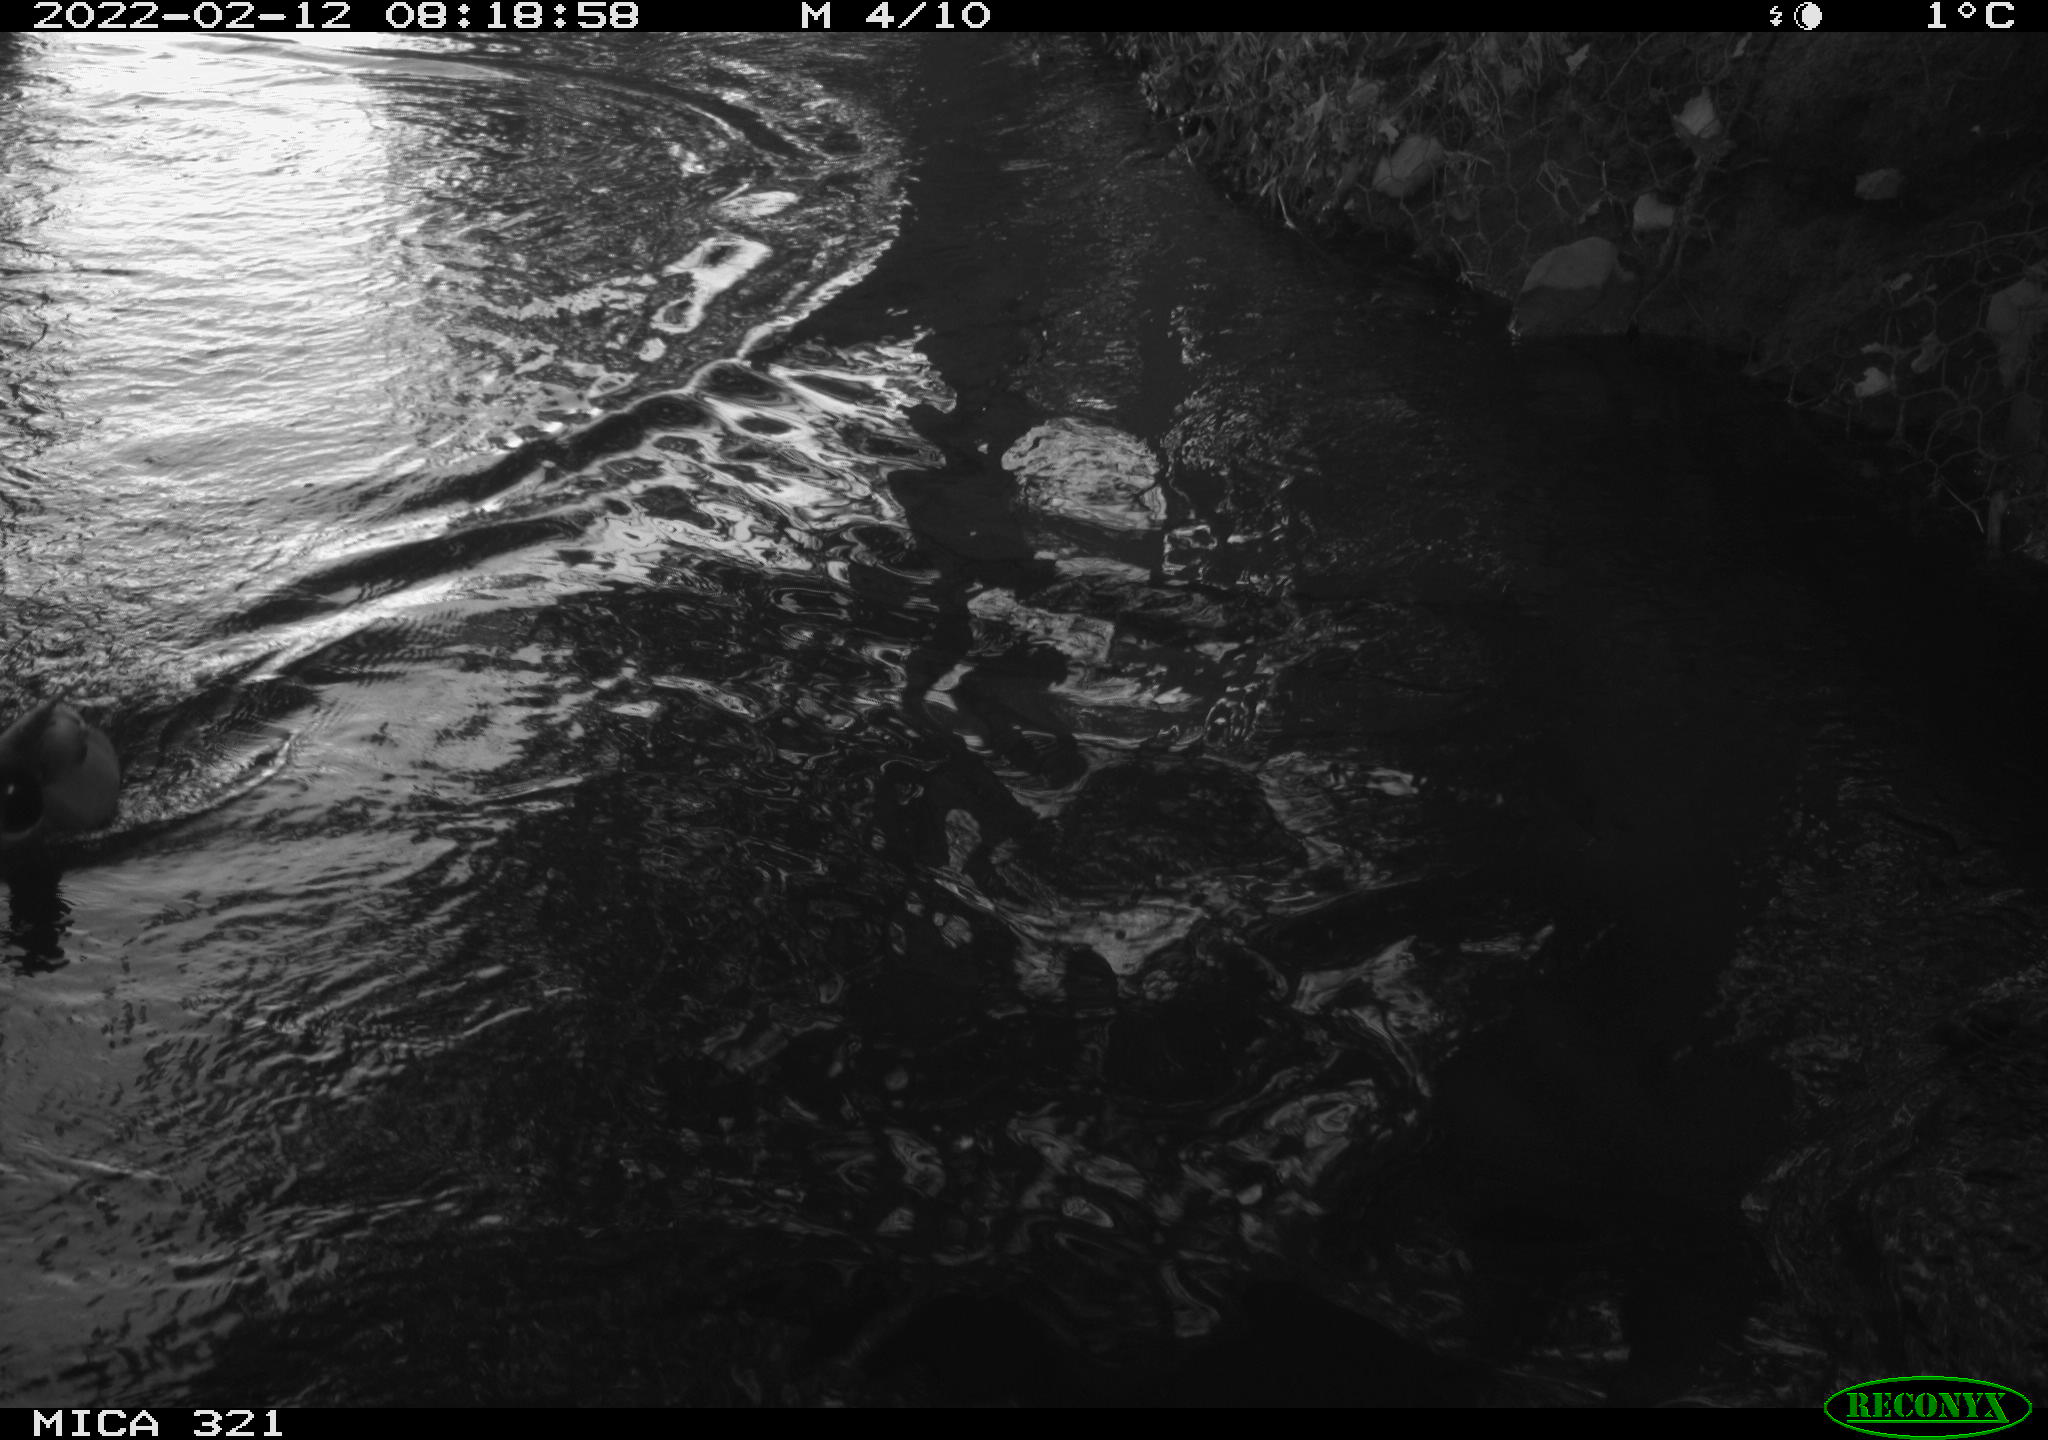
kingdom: Animalia
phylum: Chordata
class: Aves
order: Anseriformes
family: Anatidae
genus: Anas
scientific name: Anas platyrhynchos
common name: Mallard
